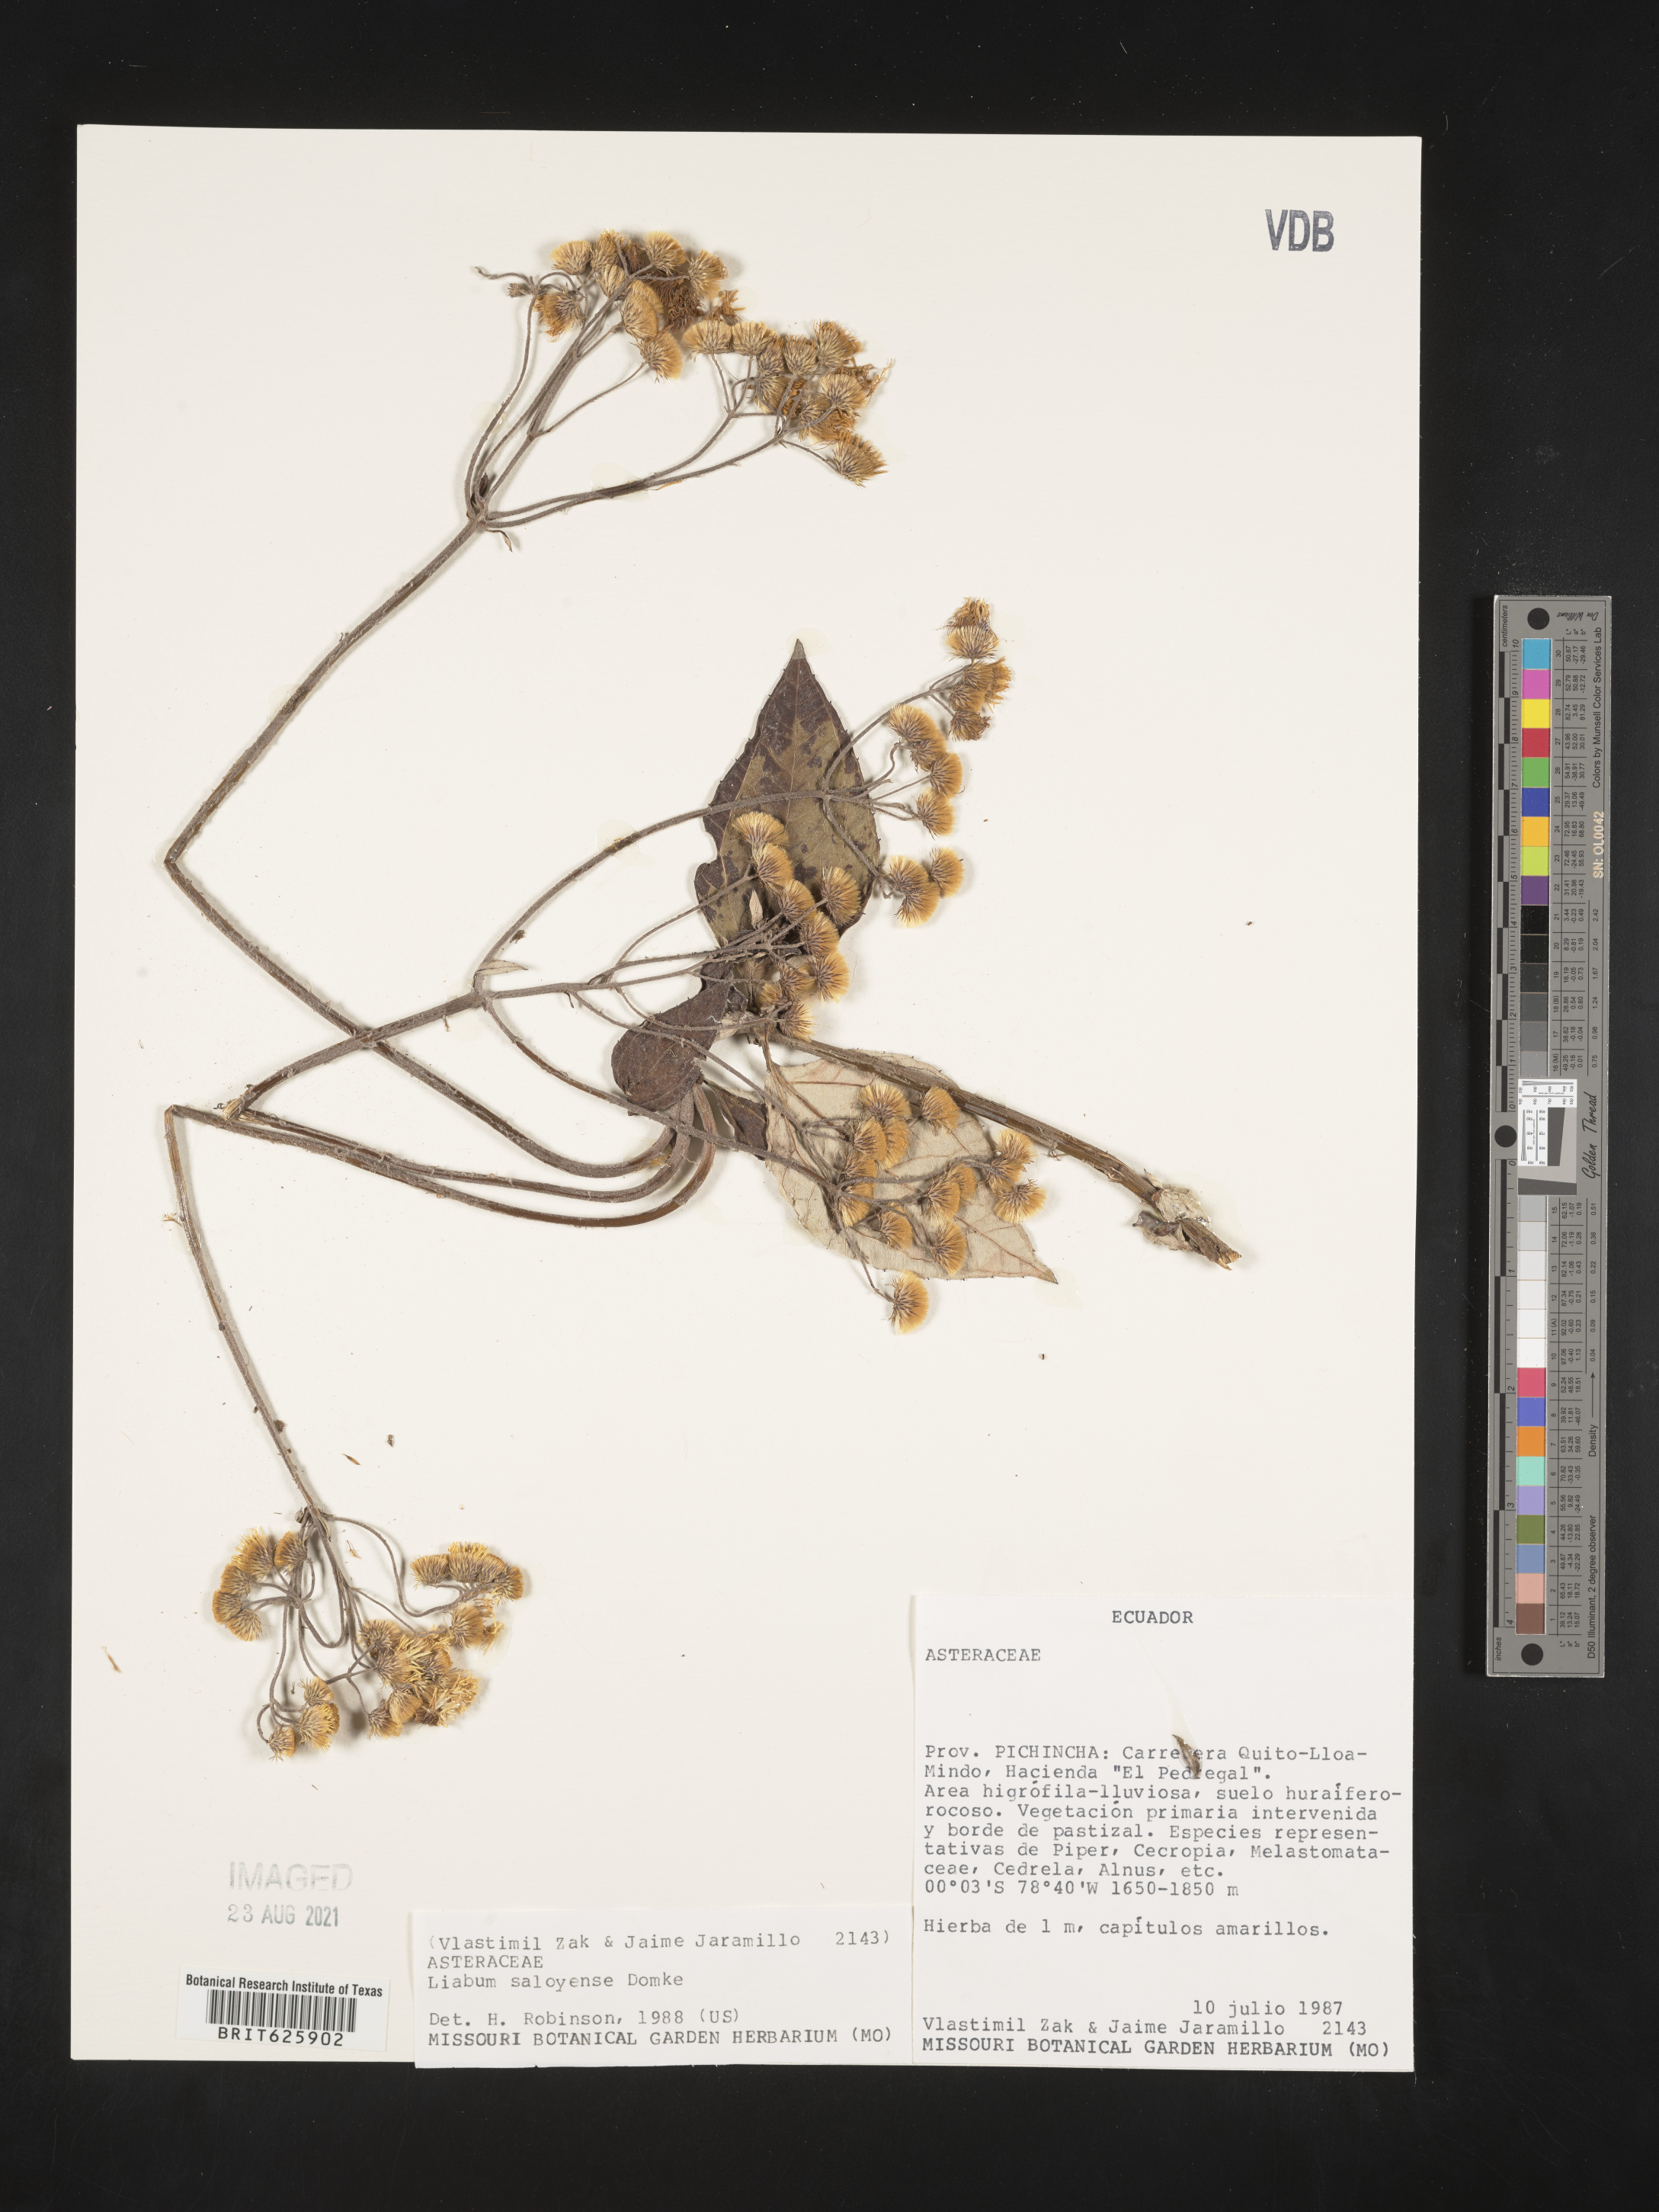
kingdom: Plantae
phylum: Tracheophyta
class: Magnoliopsida
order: Asterales
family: Asteraceae
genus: Liabum
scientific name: Liabum saloyense
